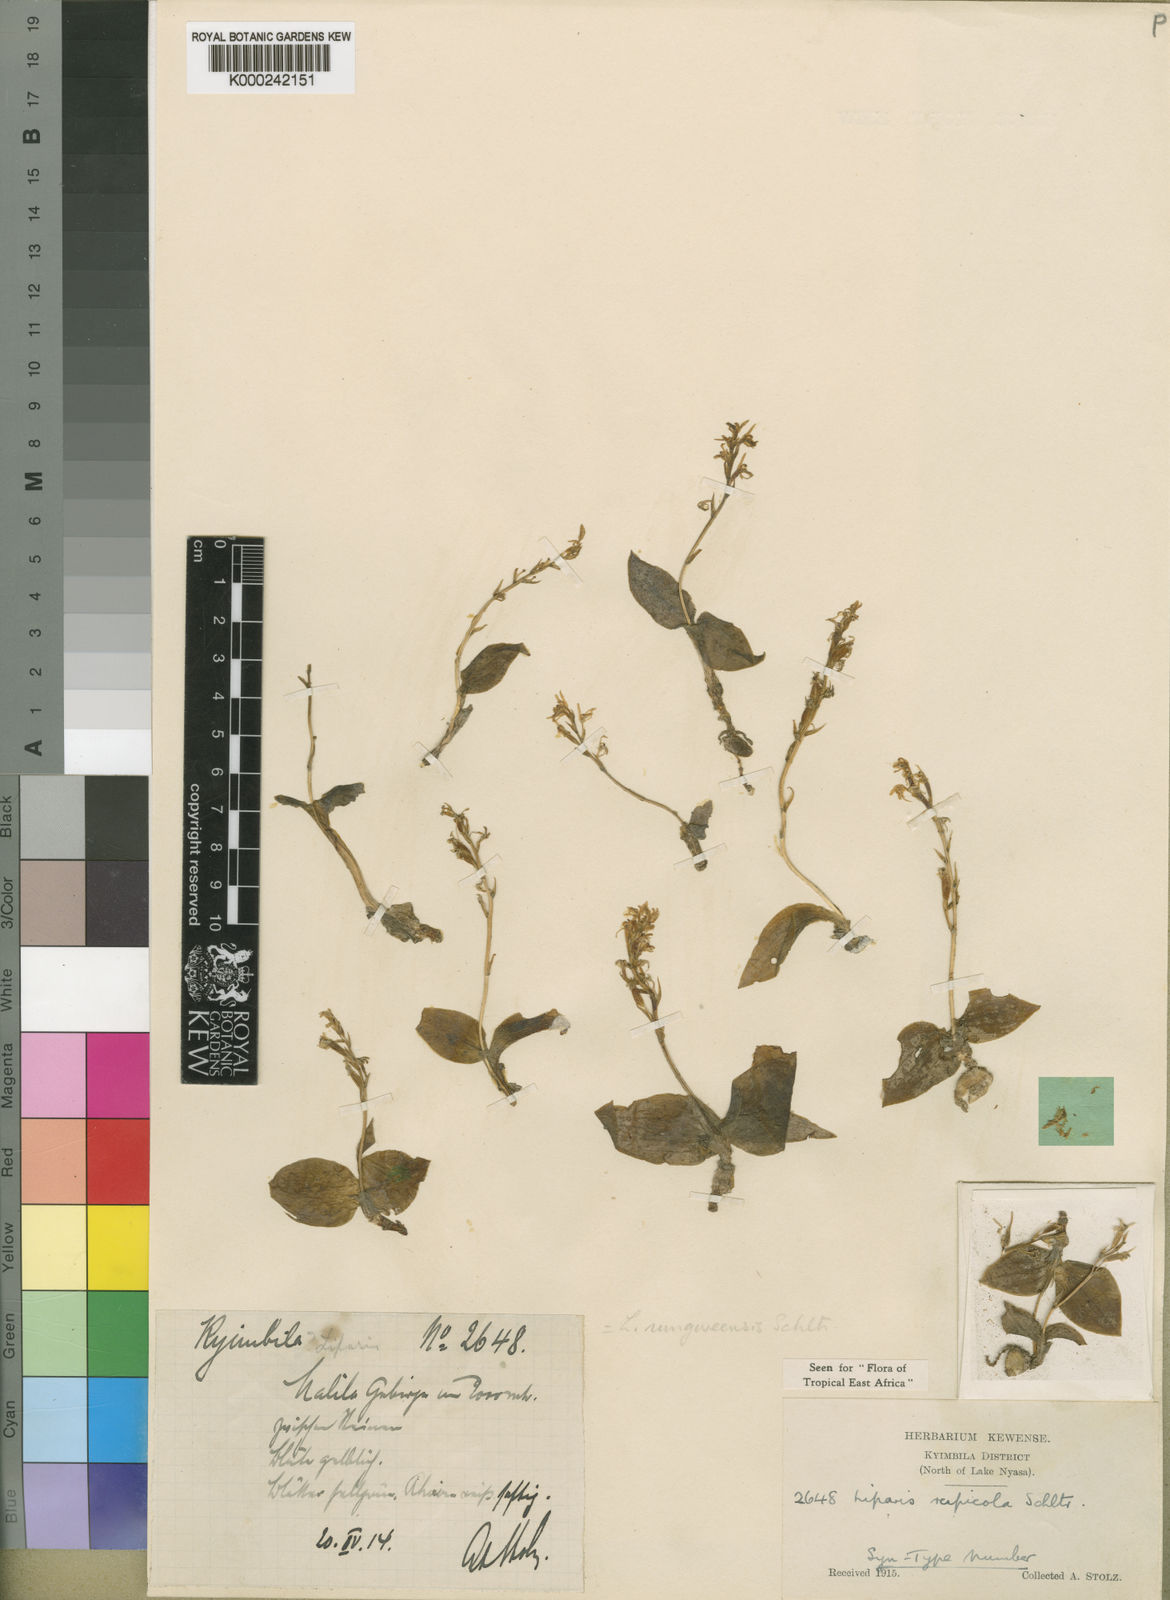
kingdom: Plantae
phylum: Tracheophyta
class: Liliopsida
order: Asparagales
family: Orchidaceae
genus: Liparis
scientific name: Liparis rungweensis
